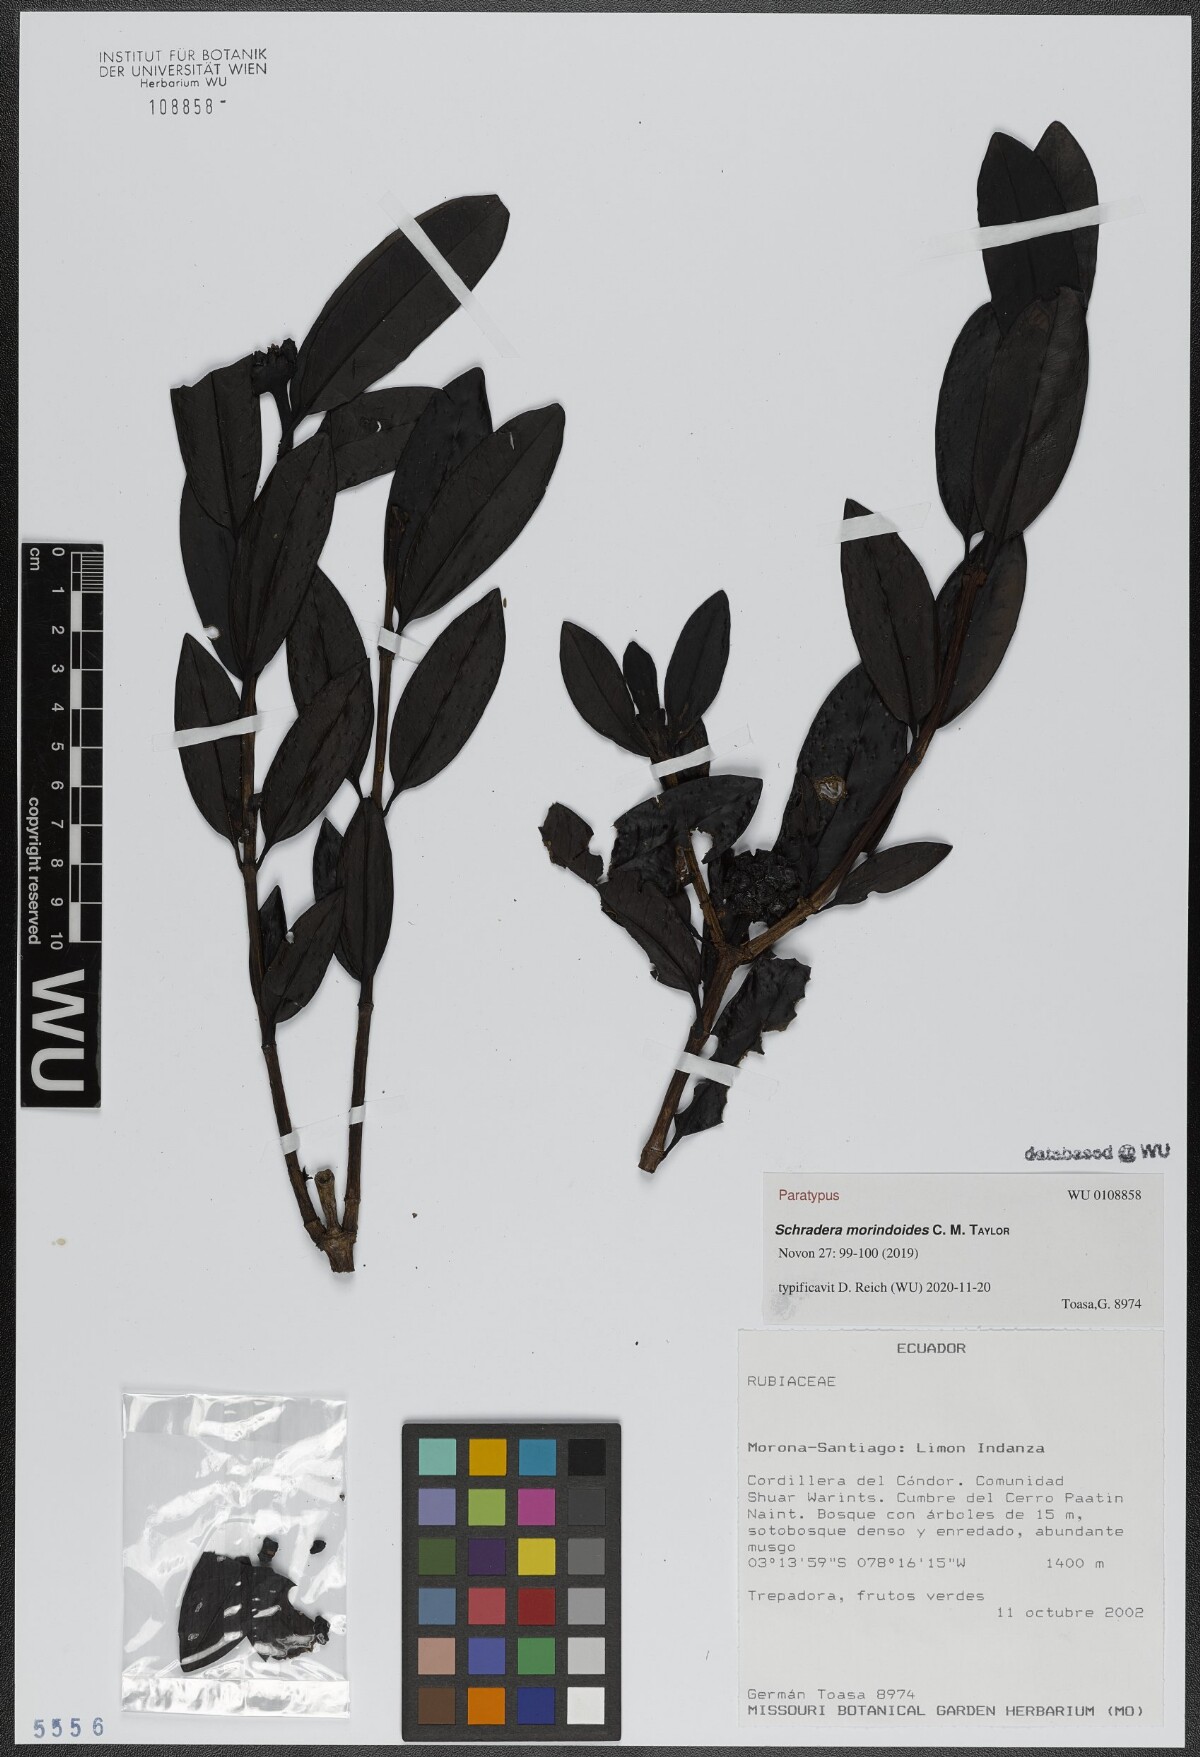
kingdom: Plantae
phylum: Tracheophyta
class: Magnoliopsida
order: Gentianales
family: Rubiaceae
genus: Schradera
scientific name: Schradera morindoides
